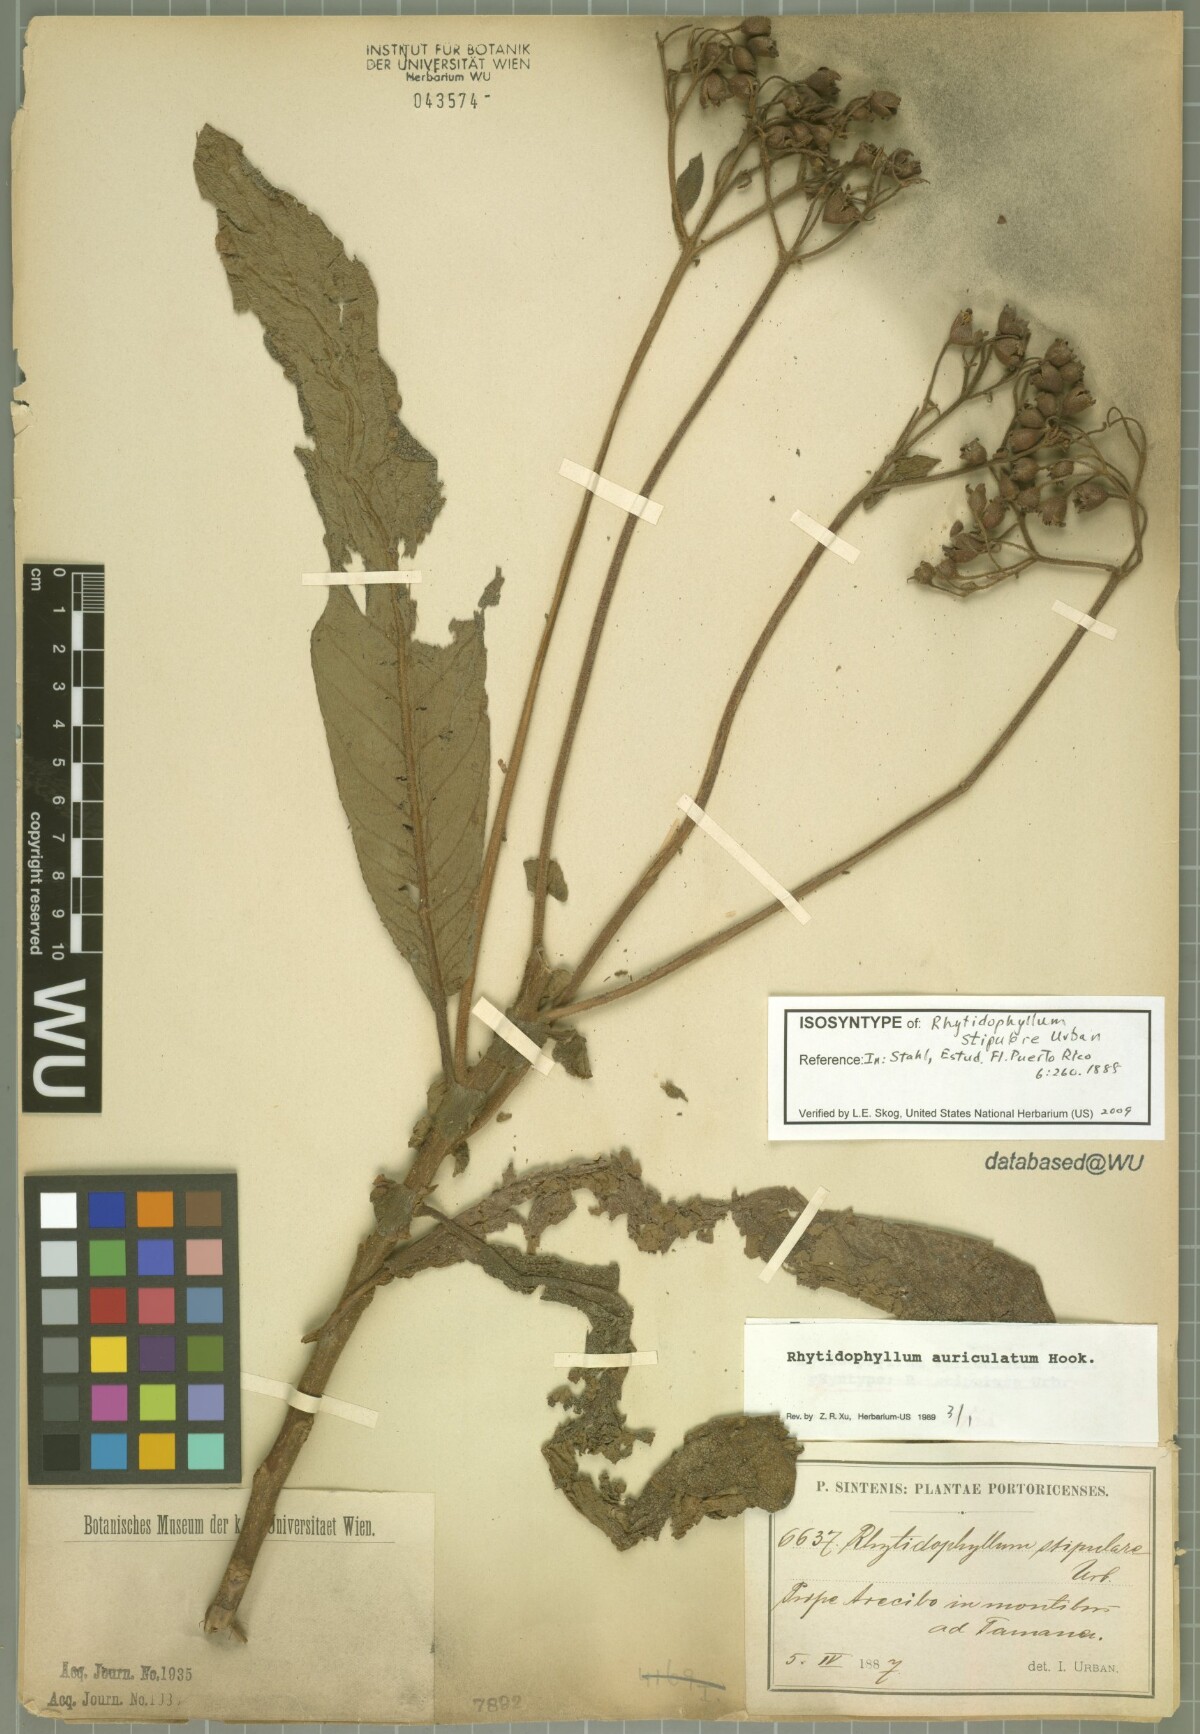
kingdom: Plantae
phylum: Tracheophyta
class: Magnoliopsida
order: Lamiales
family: Gesneriaceae
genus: Rhytidophyllum
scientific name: Rhytidophyllum auriculatum
